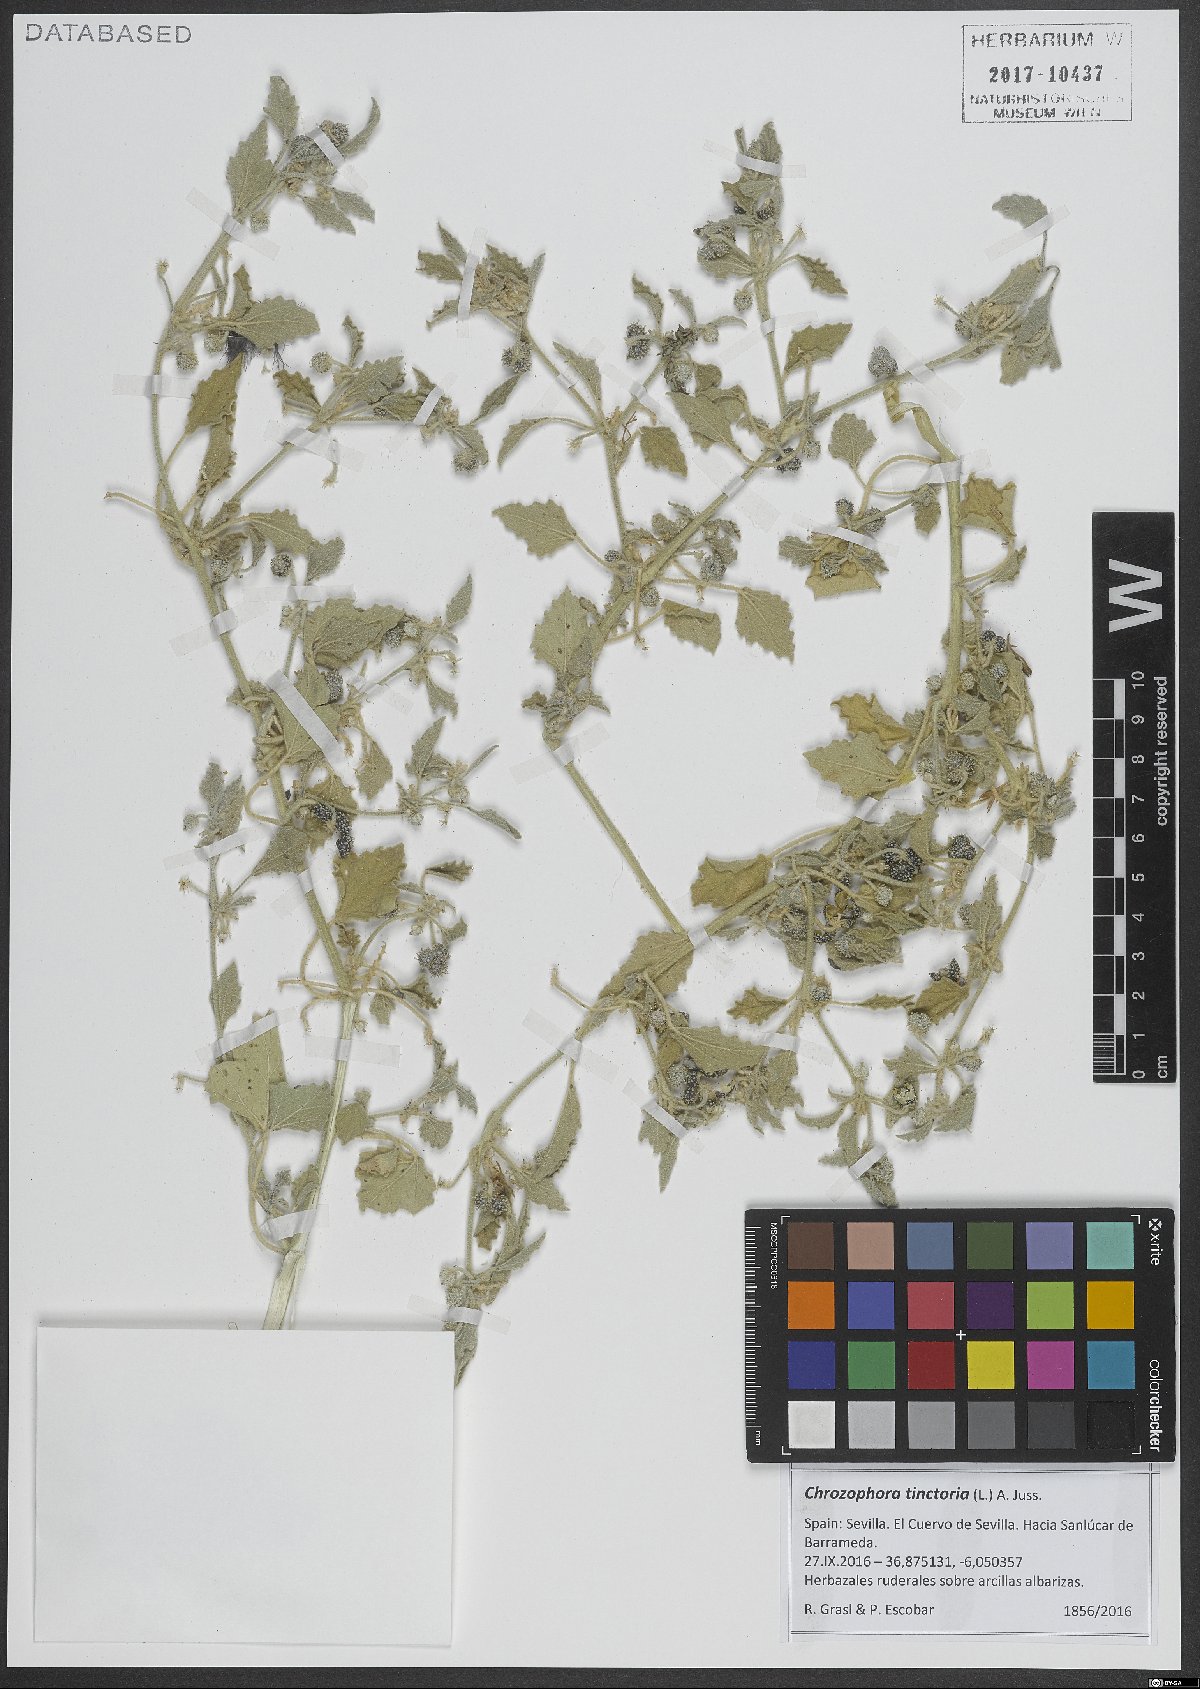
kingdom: Plantae
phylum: Tracheophyta
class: Magnoliopsida
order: Malpighiales
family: Euphorbiaceae
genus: Chrozophora
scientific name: Chrozophora tinctoria
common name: Dyer's litmus
